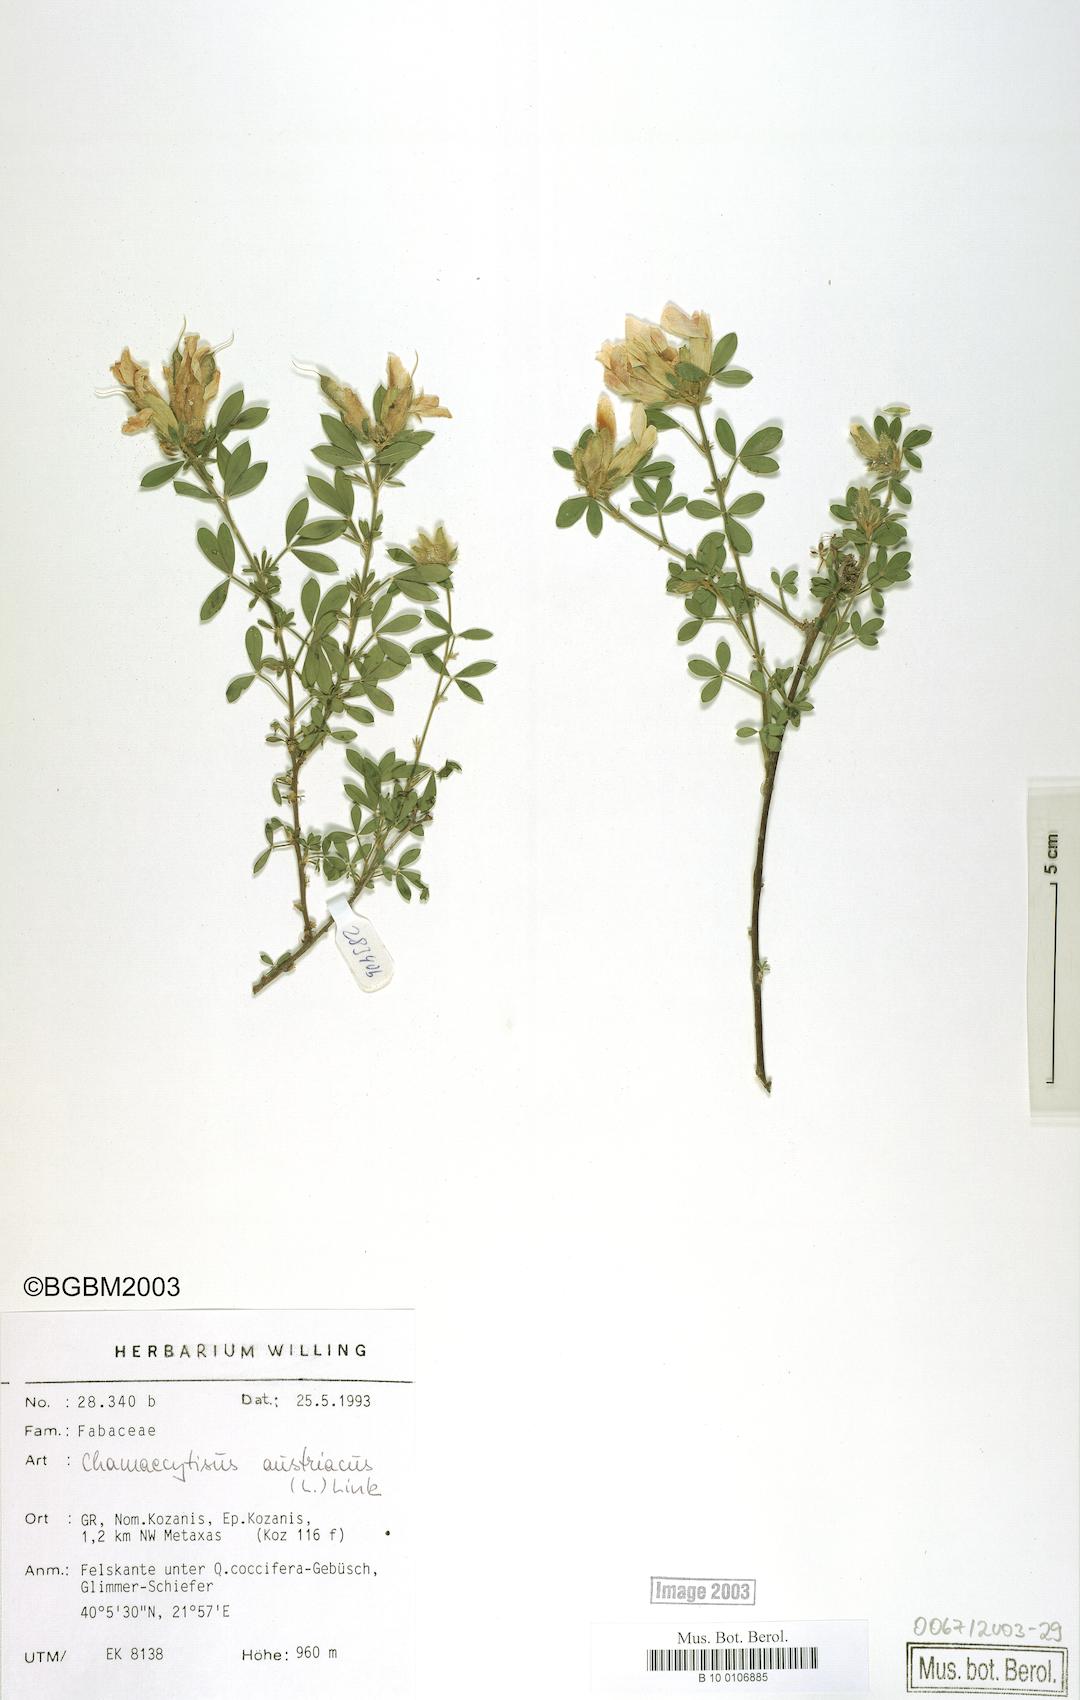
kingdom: Plantae
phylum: Tracheophyta
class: Magnoliopsida
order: Fabales
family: Fabaceae
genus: Chamaecytisus
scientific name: Chamaecytisus austriacus
